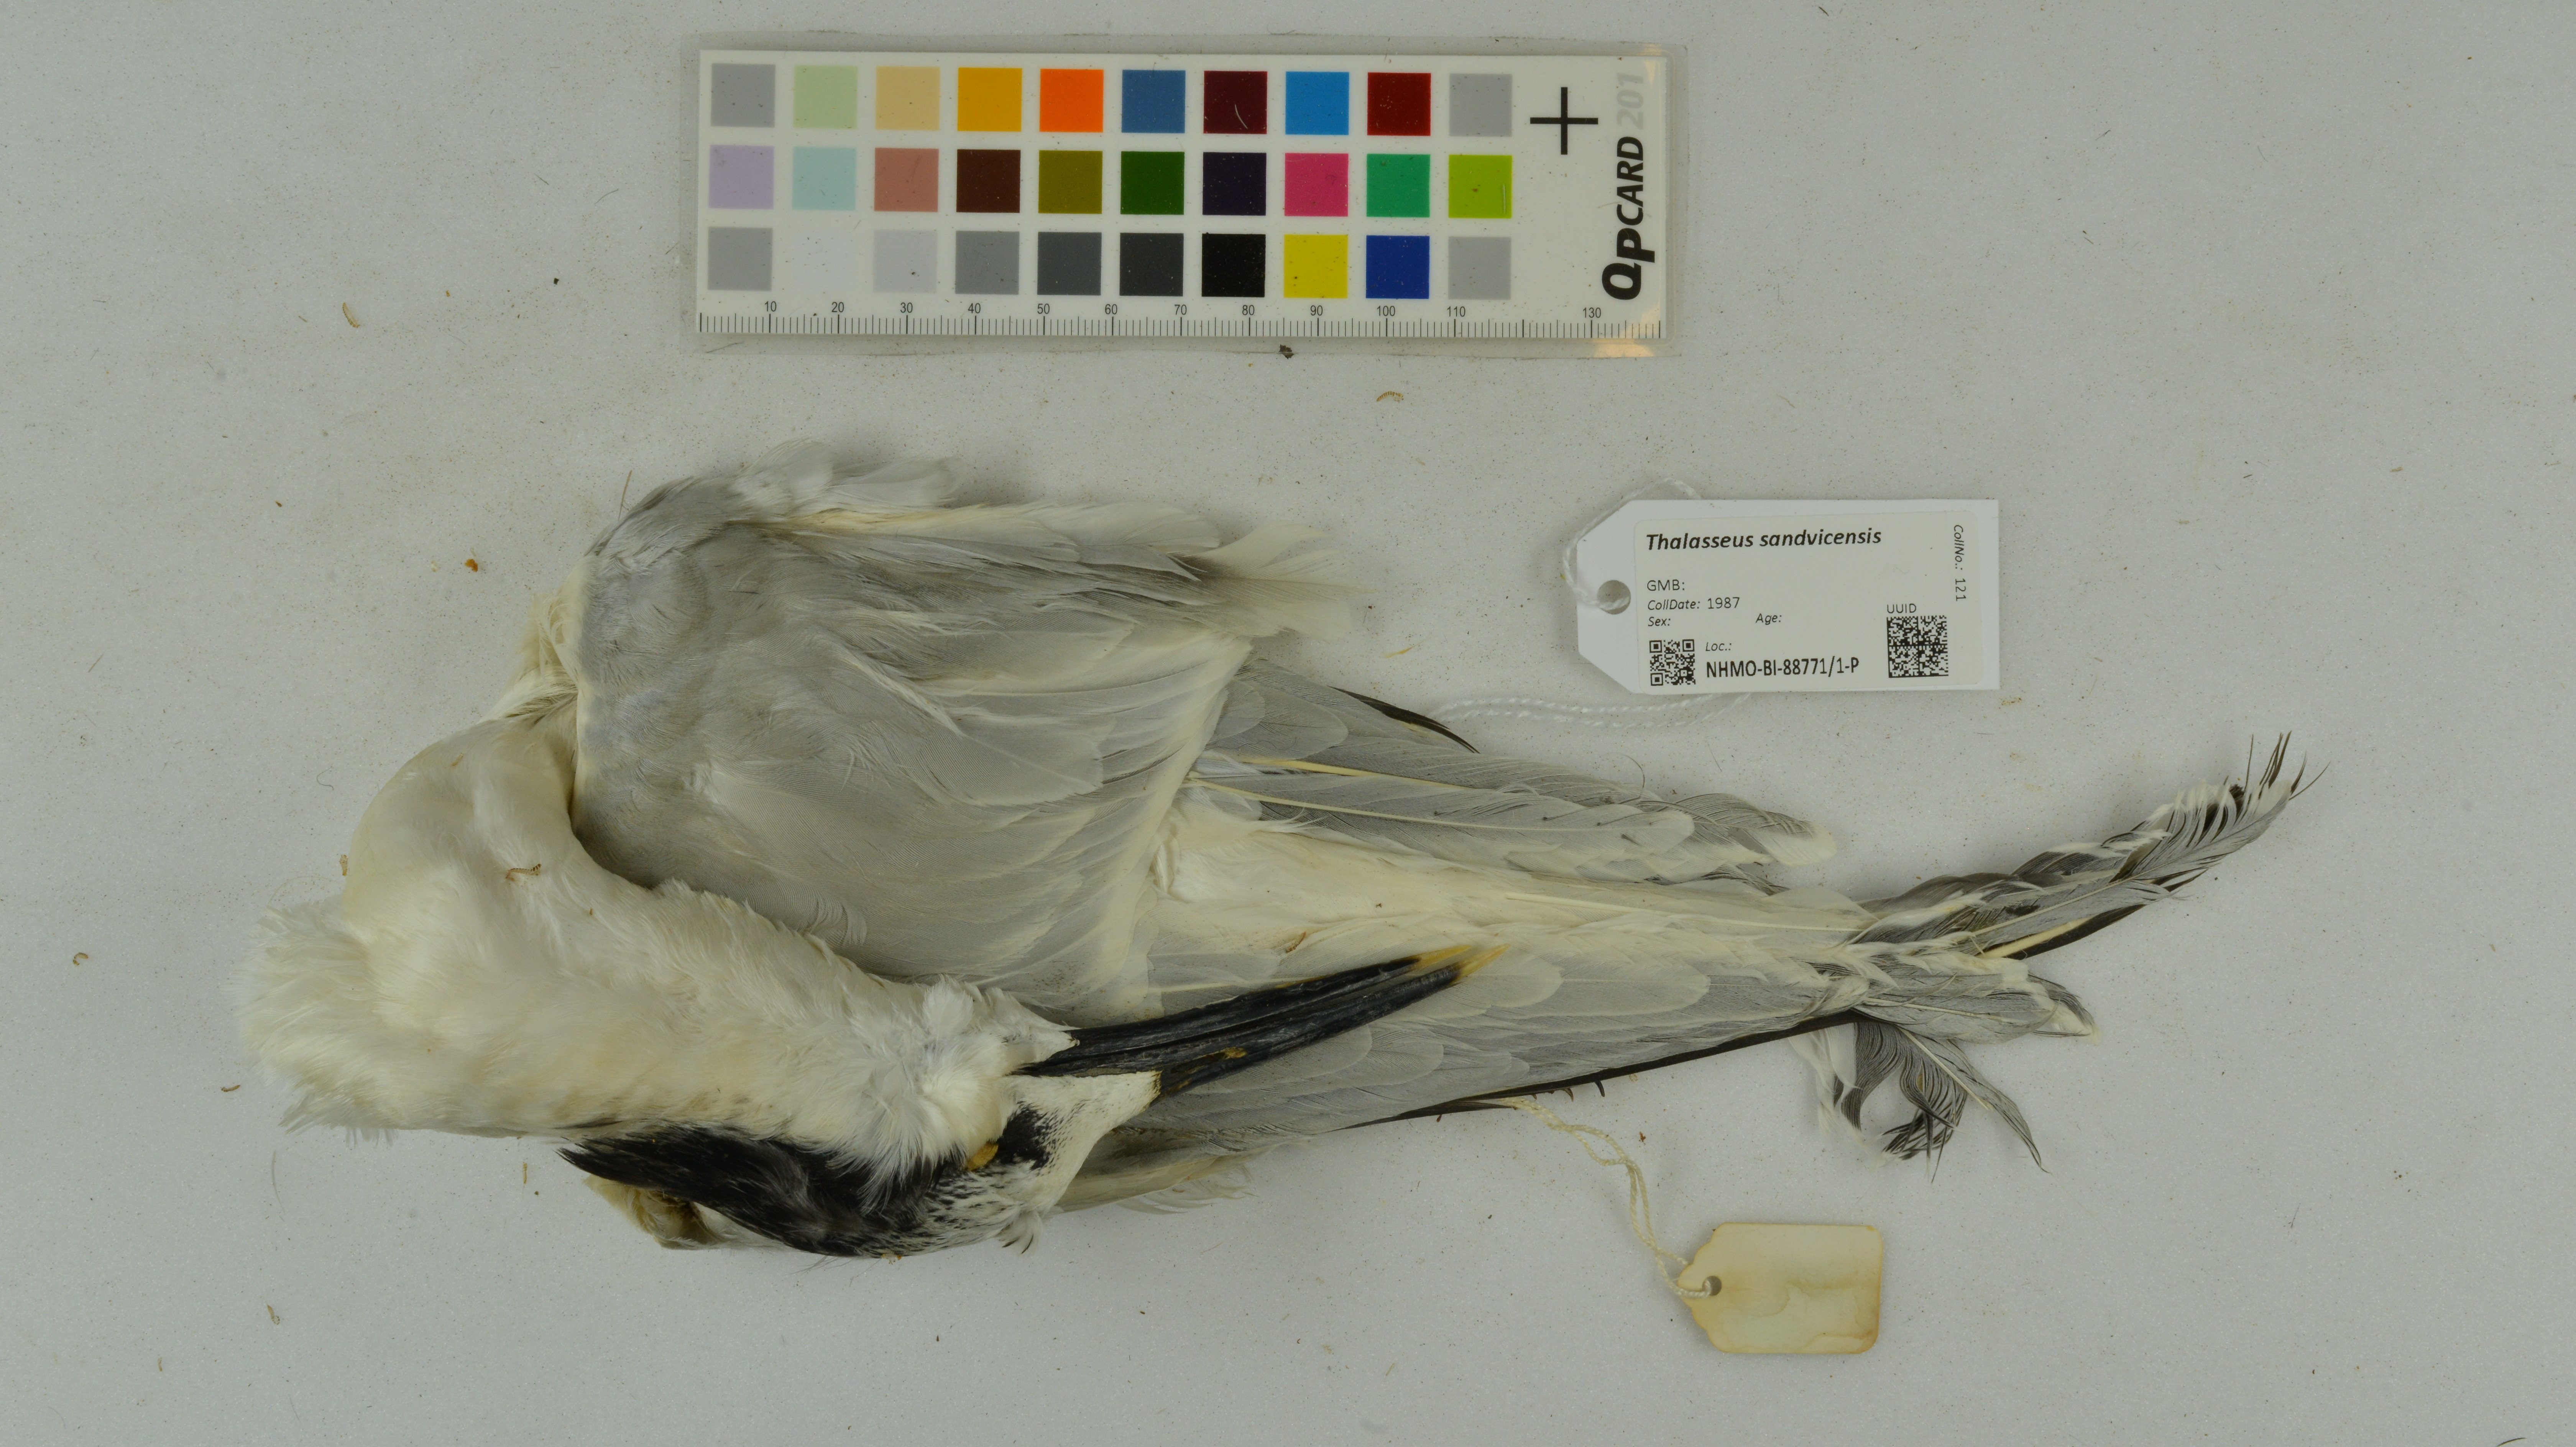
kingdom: Animalia
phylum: Chordata
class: Aves
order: Charadriiformes
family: Laridae
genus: Thalasseus
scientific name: Thalasseus sandvicensis
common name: Sandwich tern
